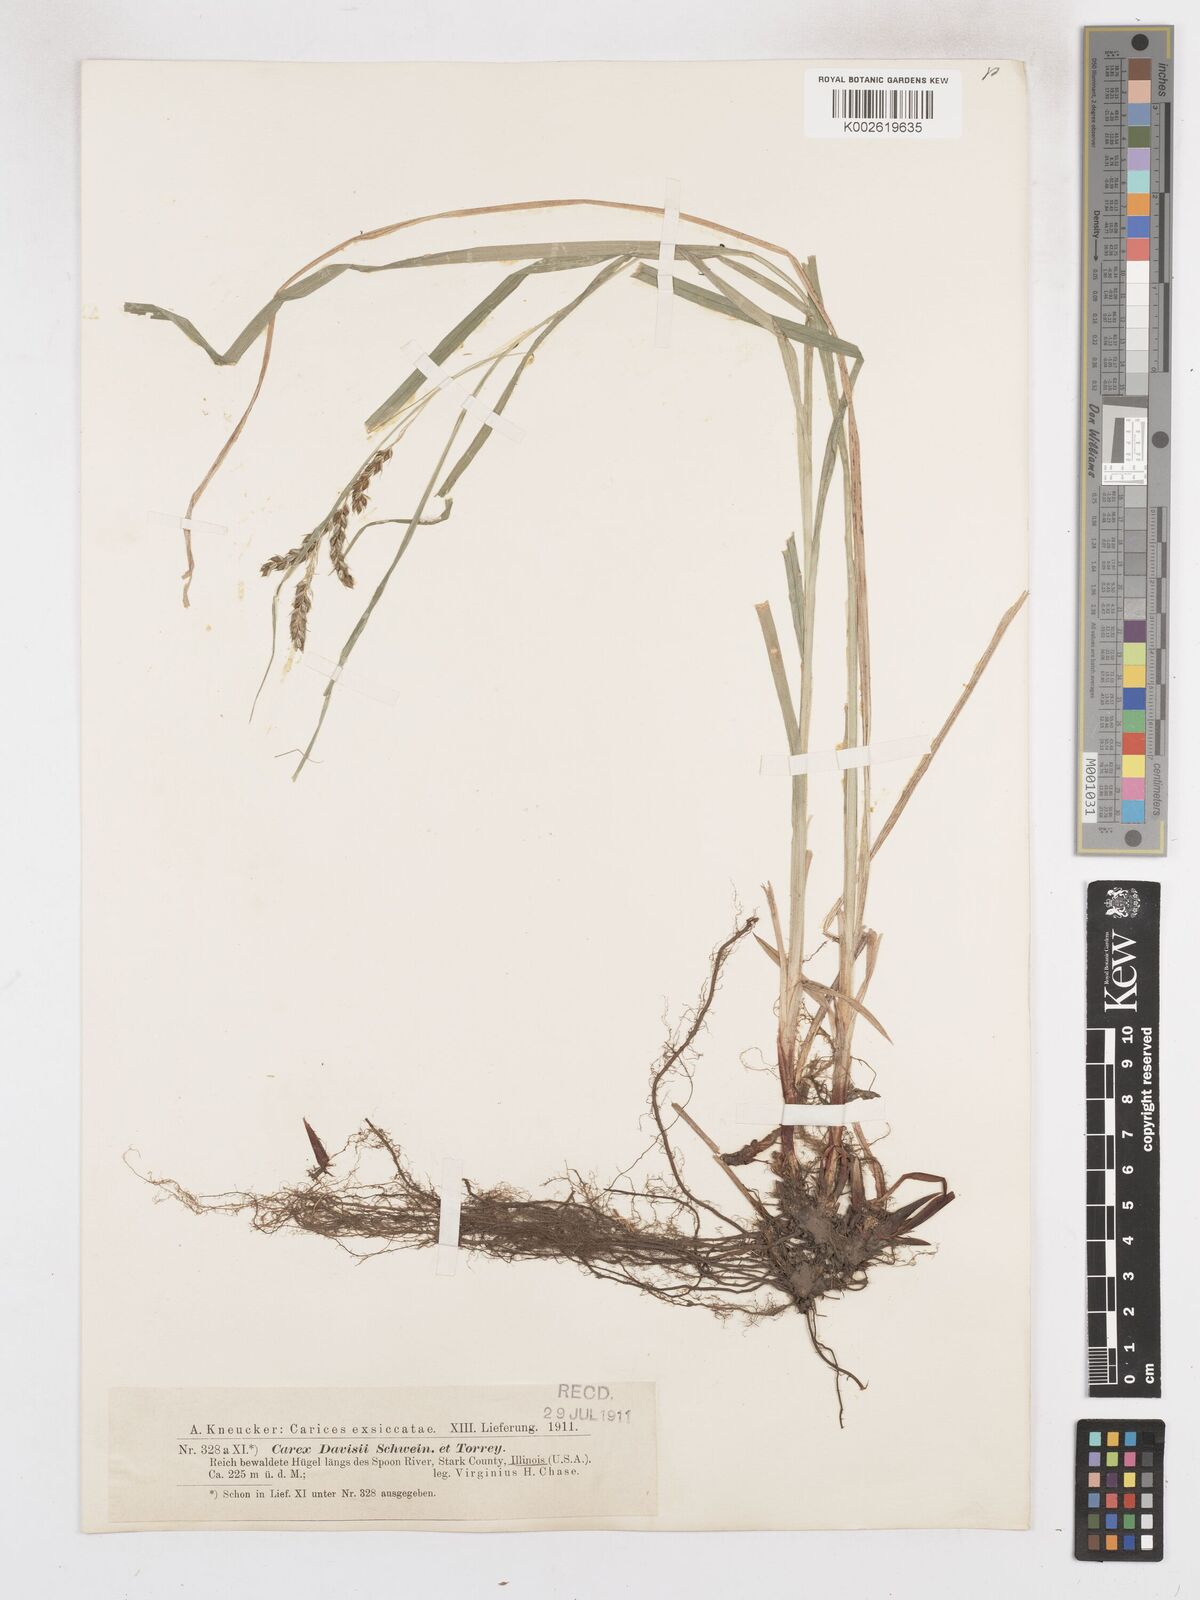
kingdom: Plantae
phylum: Tracheophyta
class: Liliopsida
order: Poales
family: Cyperaceae
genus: Carex
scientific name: Carex davisii
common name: Davis' sedge
